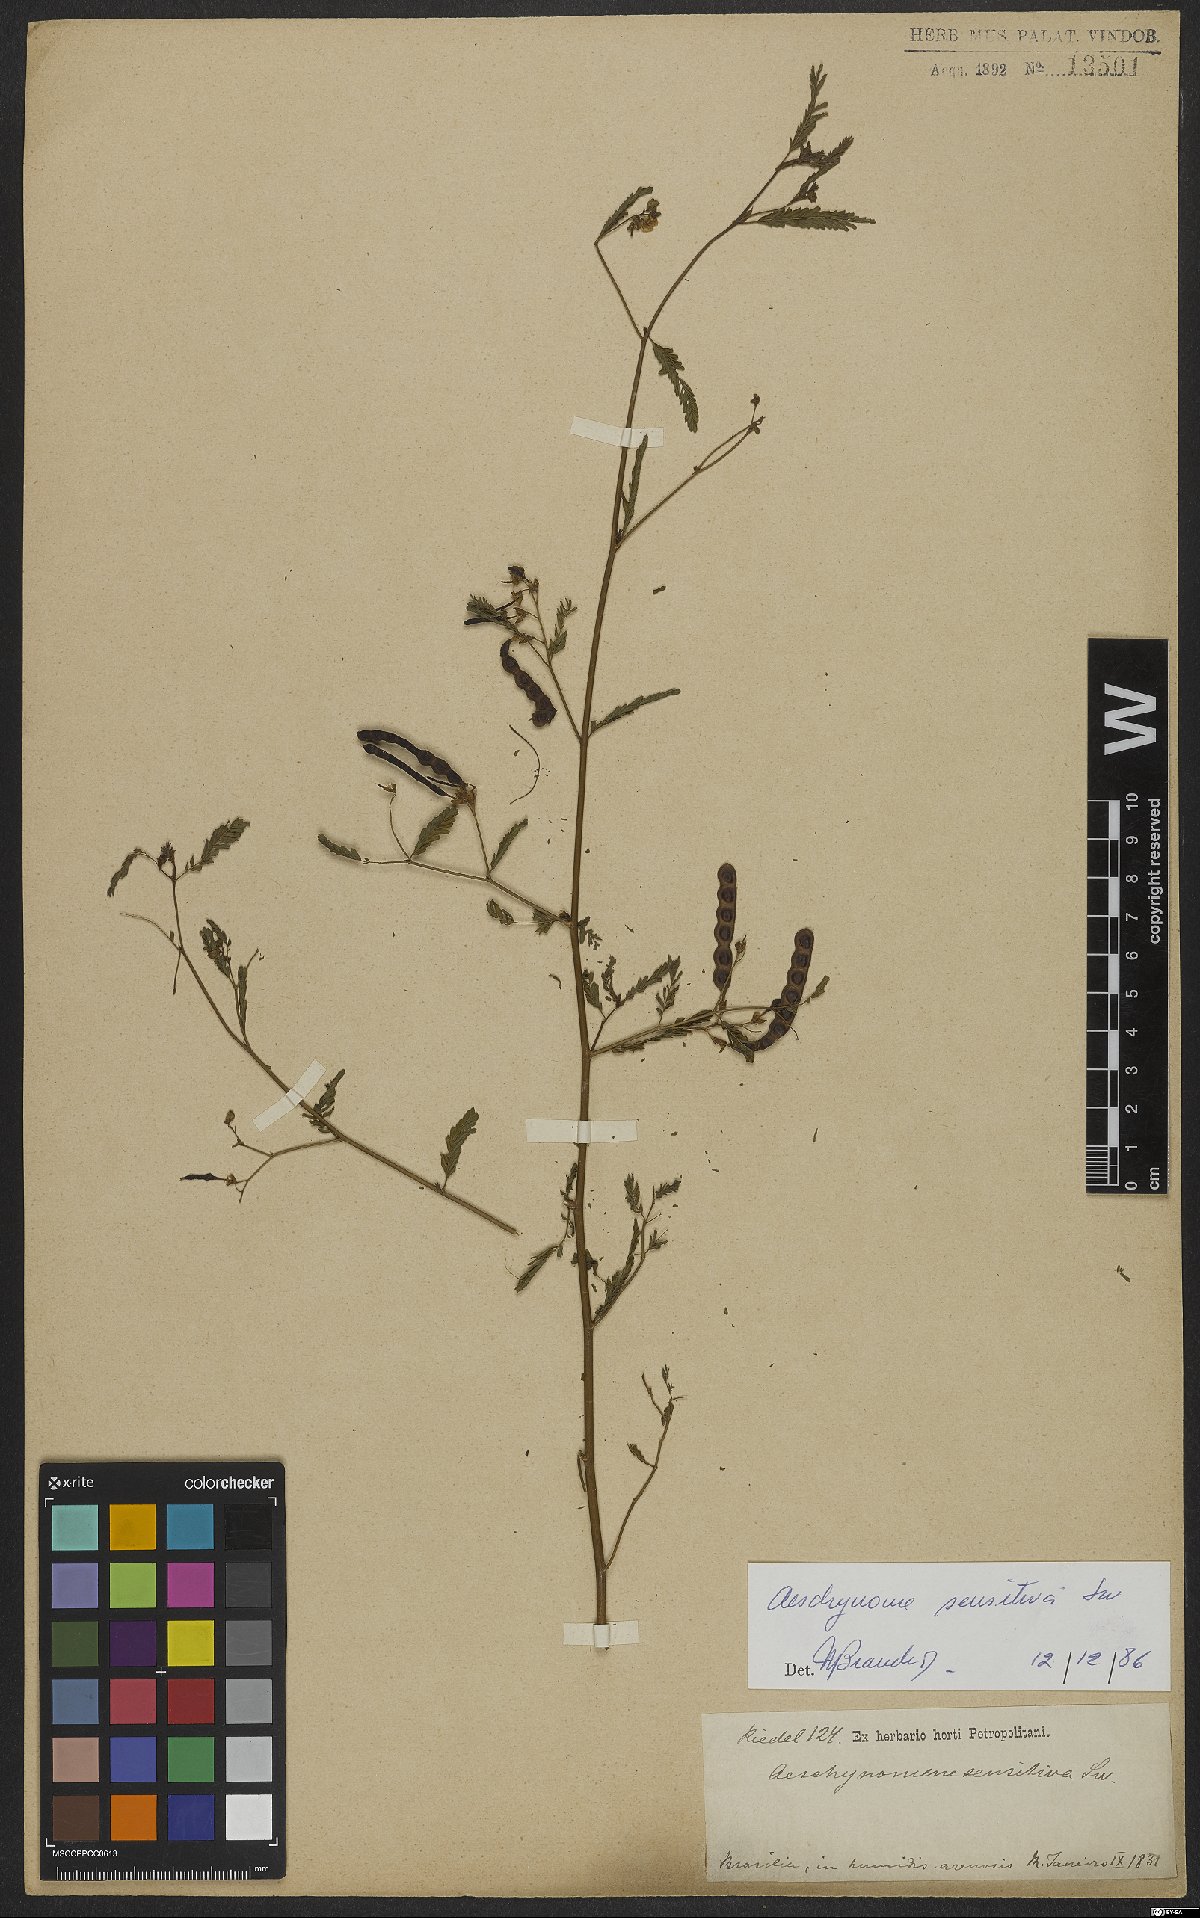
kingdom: Plantae
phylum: Tracheophyta
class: Magnoliopsida
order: Fabales
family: Fabaceae
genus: Aeschynomene
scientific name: Aeschynomene sensitiva
